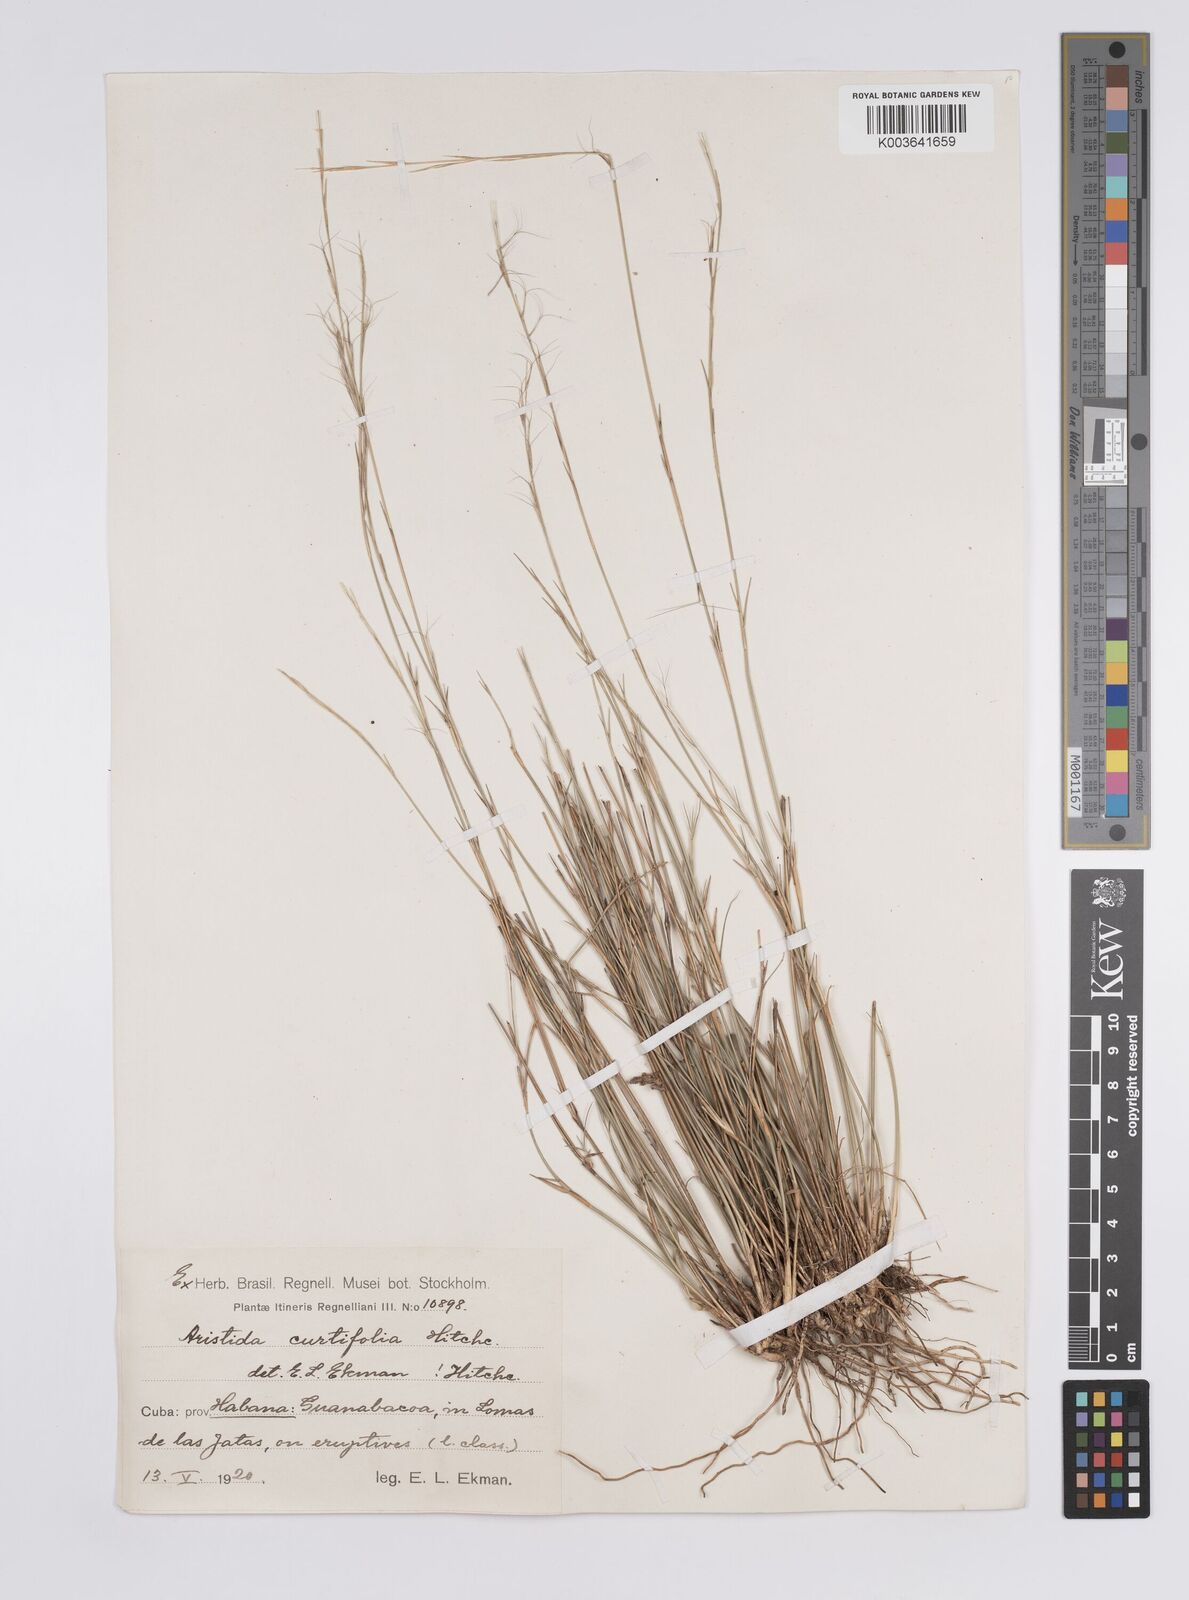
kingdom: Plantae
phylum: Tracheophyta
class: Liliopsida
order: Poales
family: Poaceae
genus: Aristida
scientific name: Aristida curtifolia
